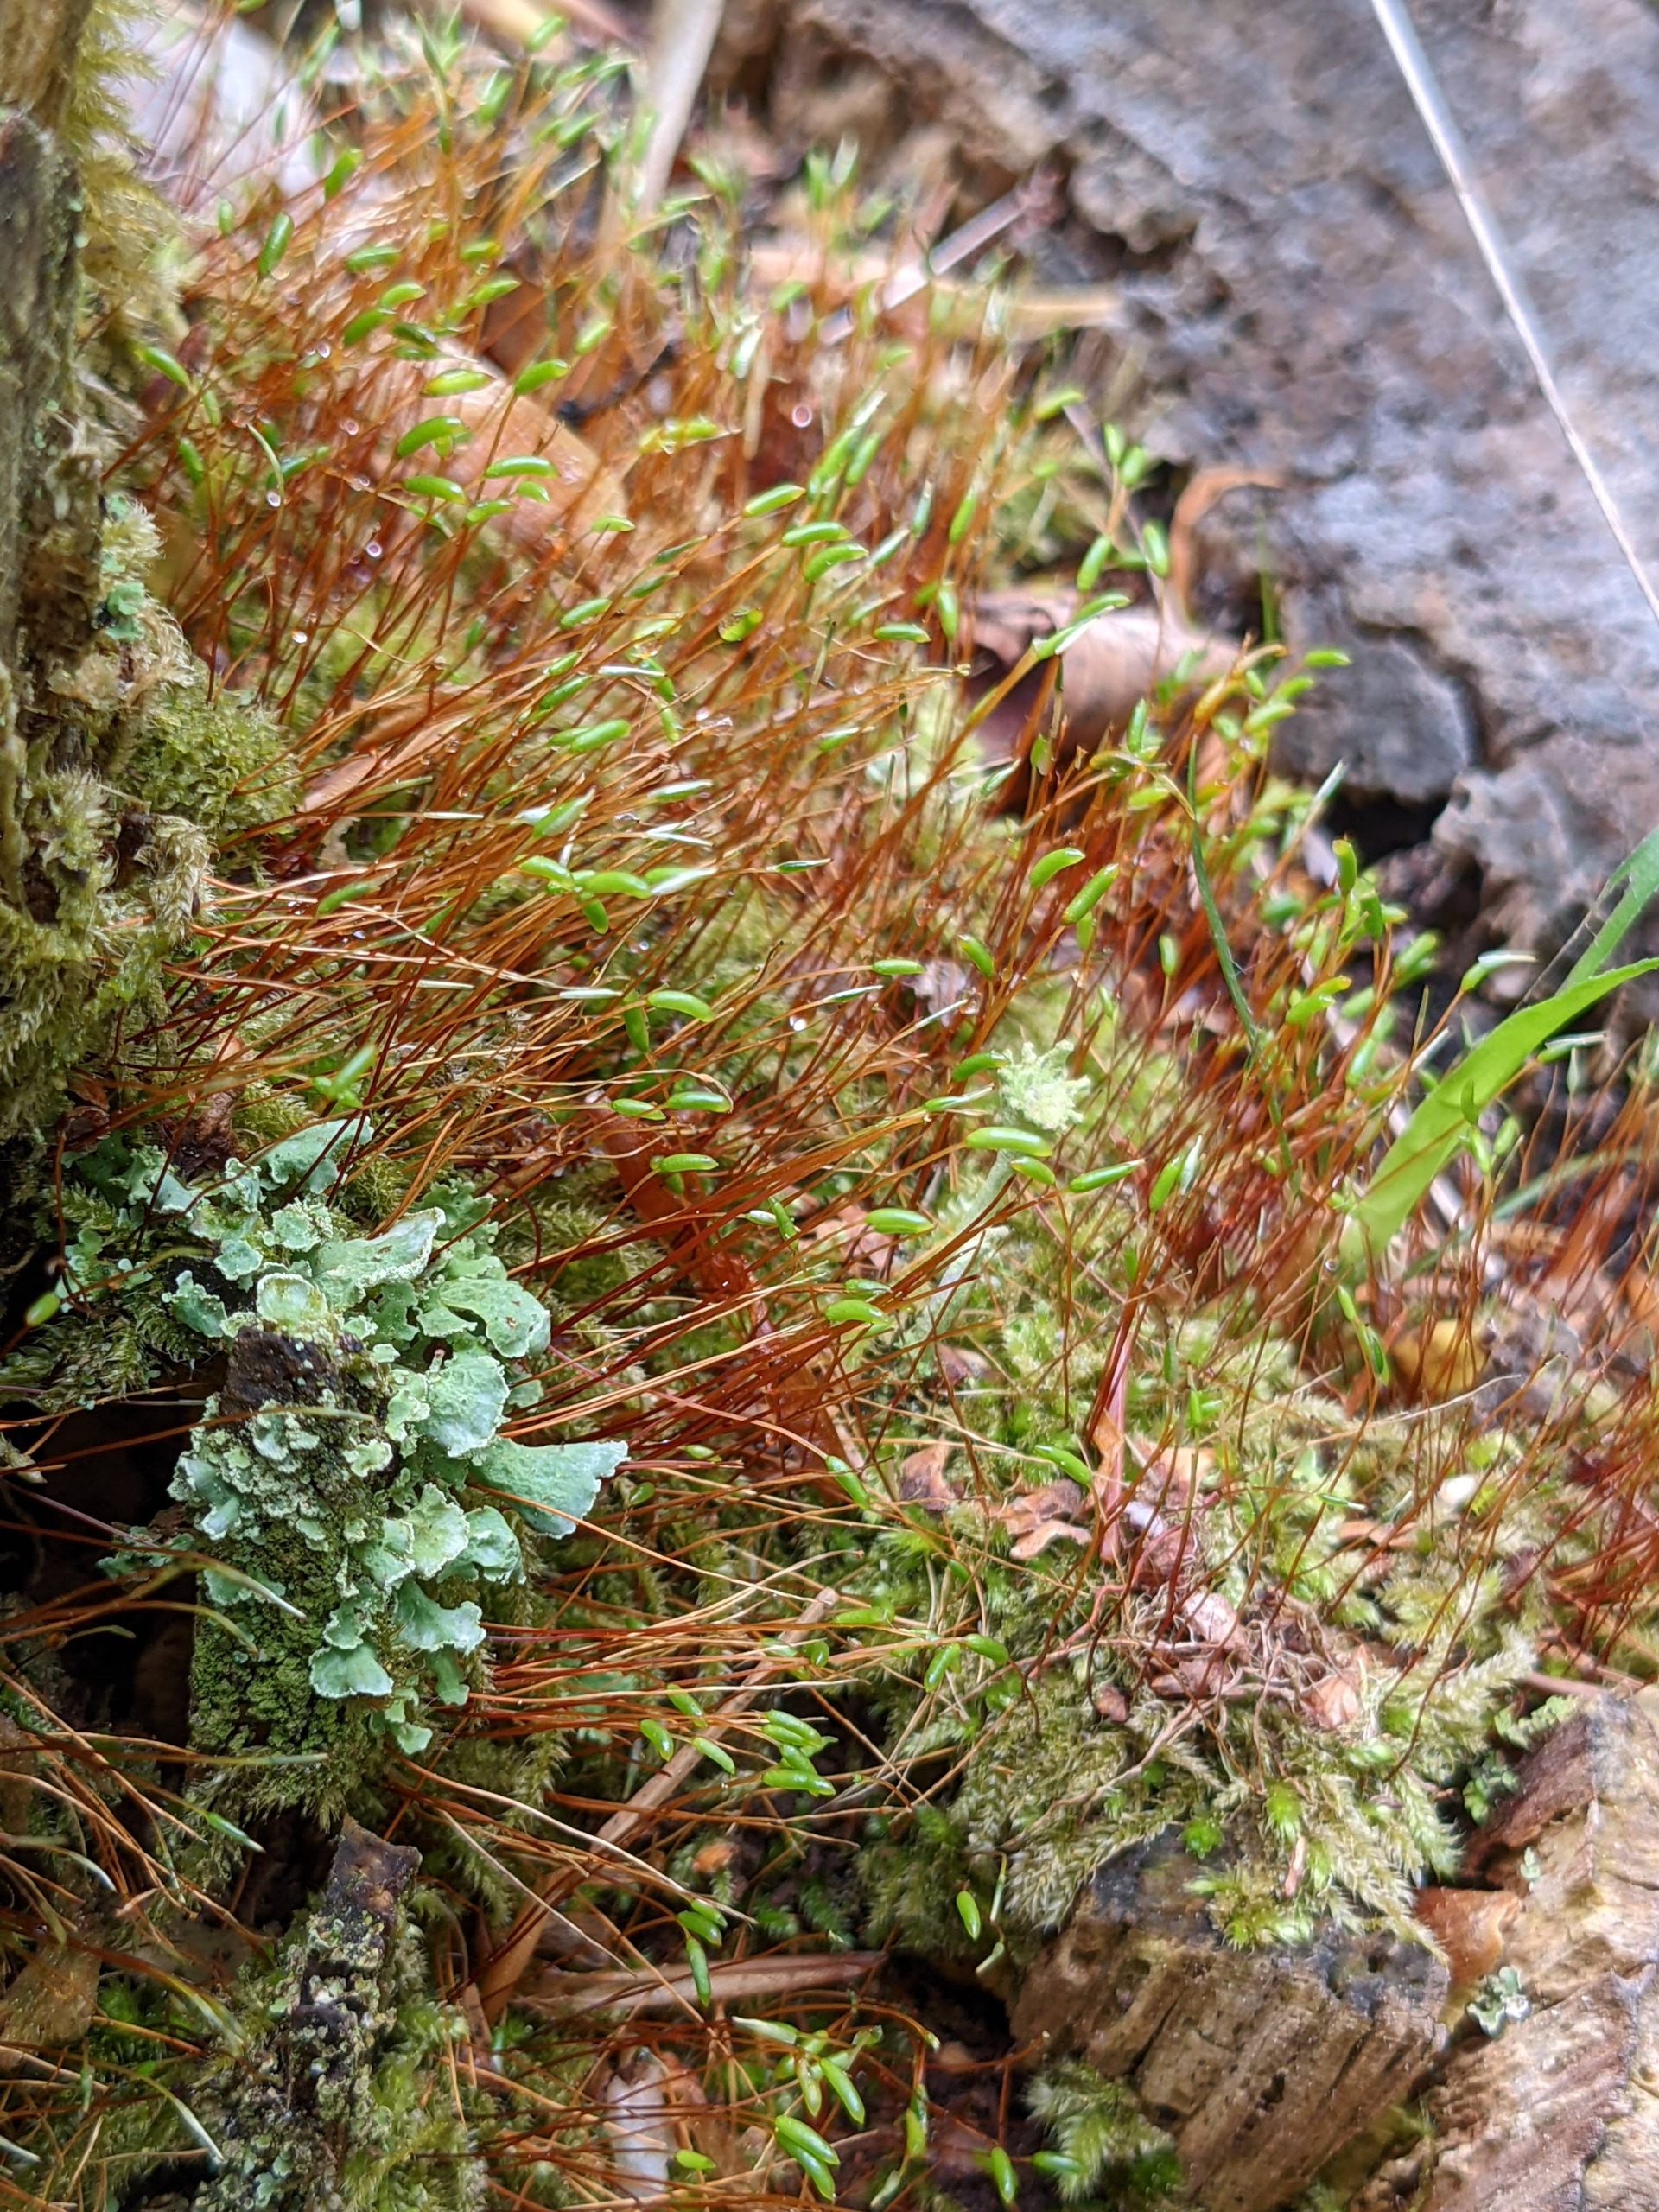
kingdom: Plantae
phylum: Bryophyta
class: Bryopsida
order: Hypnales
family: Plagiotheciaceae
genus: Herzogiella
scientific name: Herzogiella seligeri
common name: Stub-pølsekapsel
